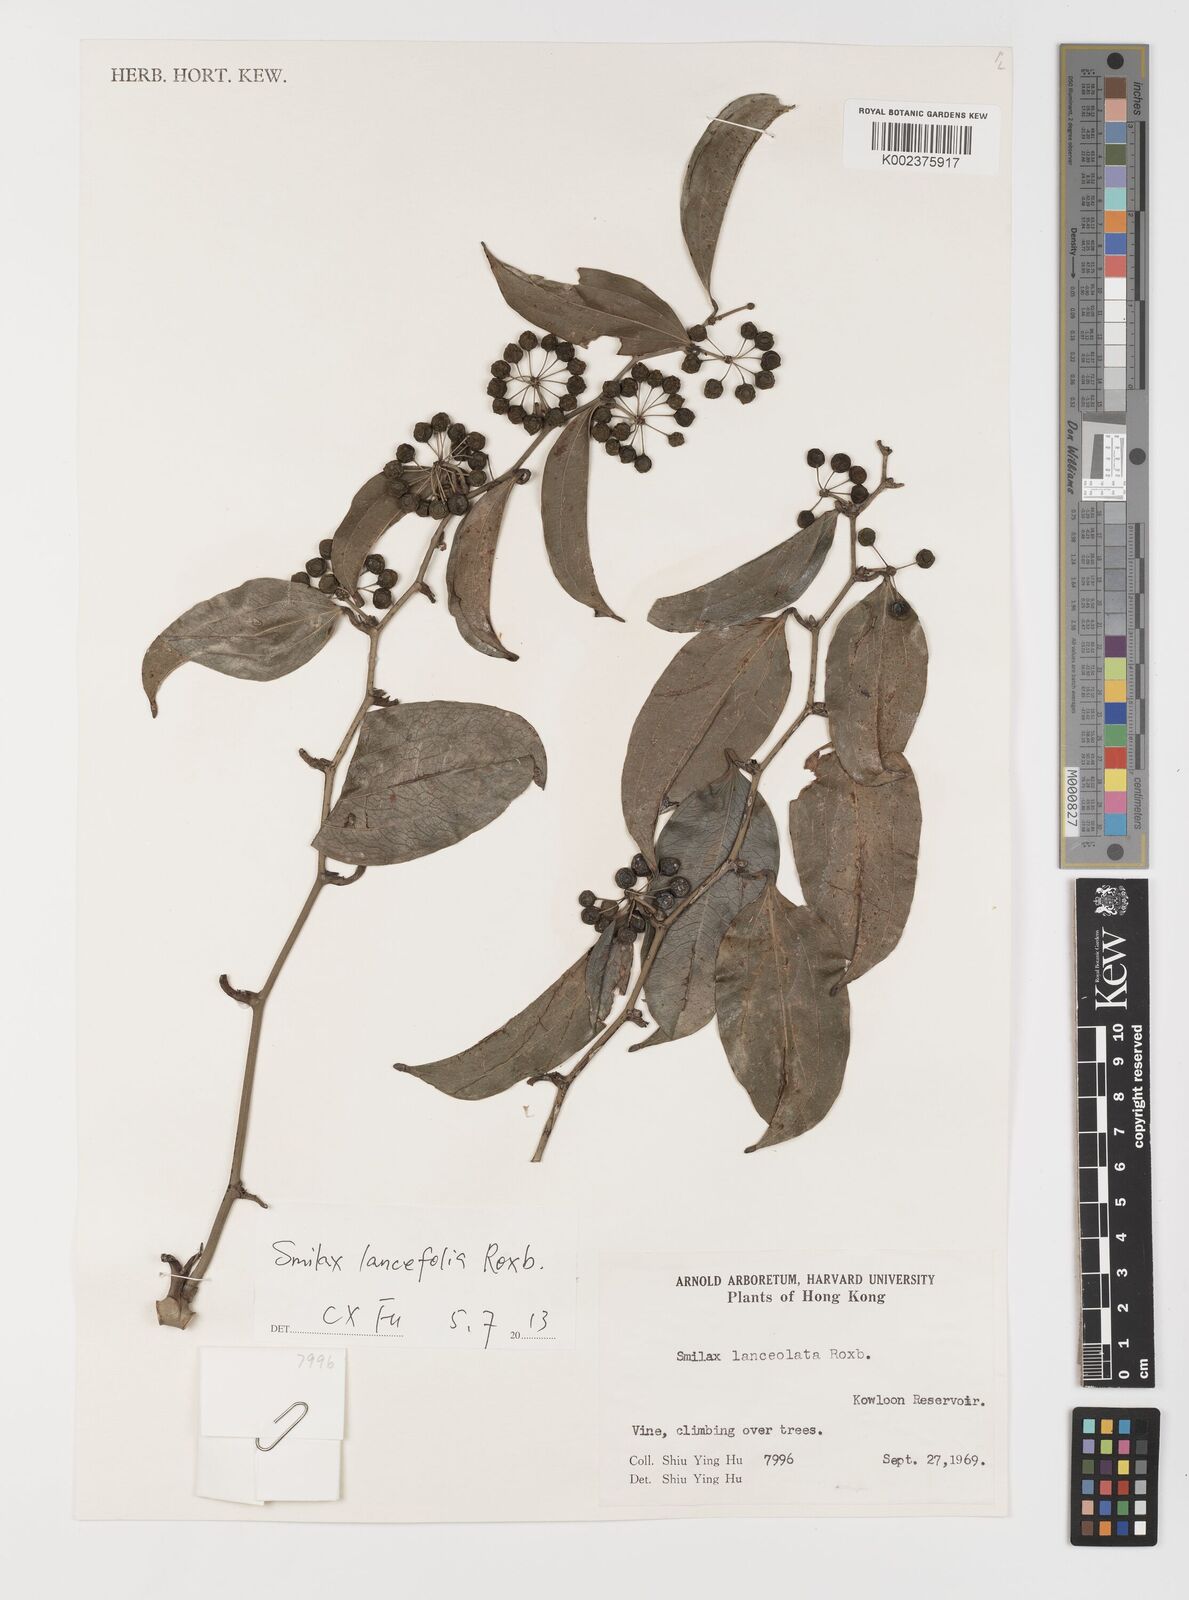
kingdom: Plantae
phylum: Tracheophyta
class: Liliopsida
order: Liliales
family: Smilacaceae
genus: Smilax
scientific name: Smilax lanceifolia
